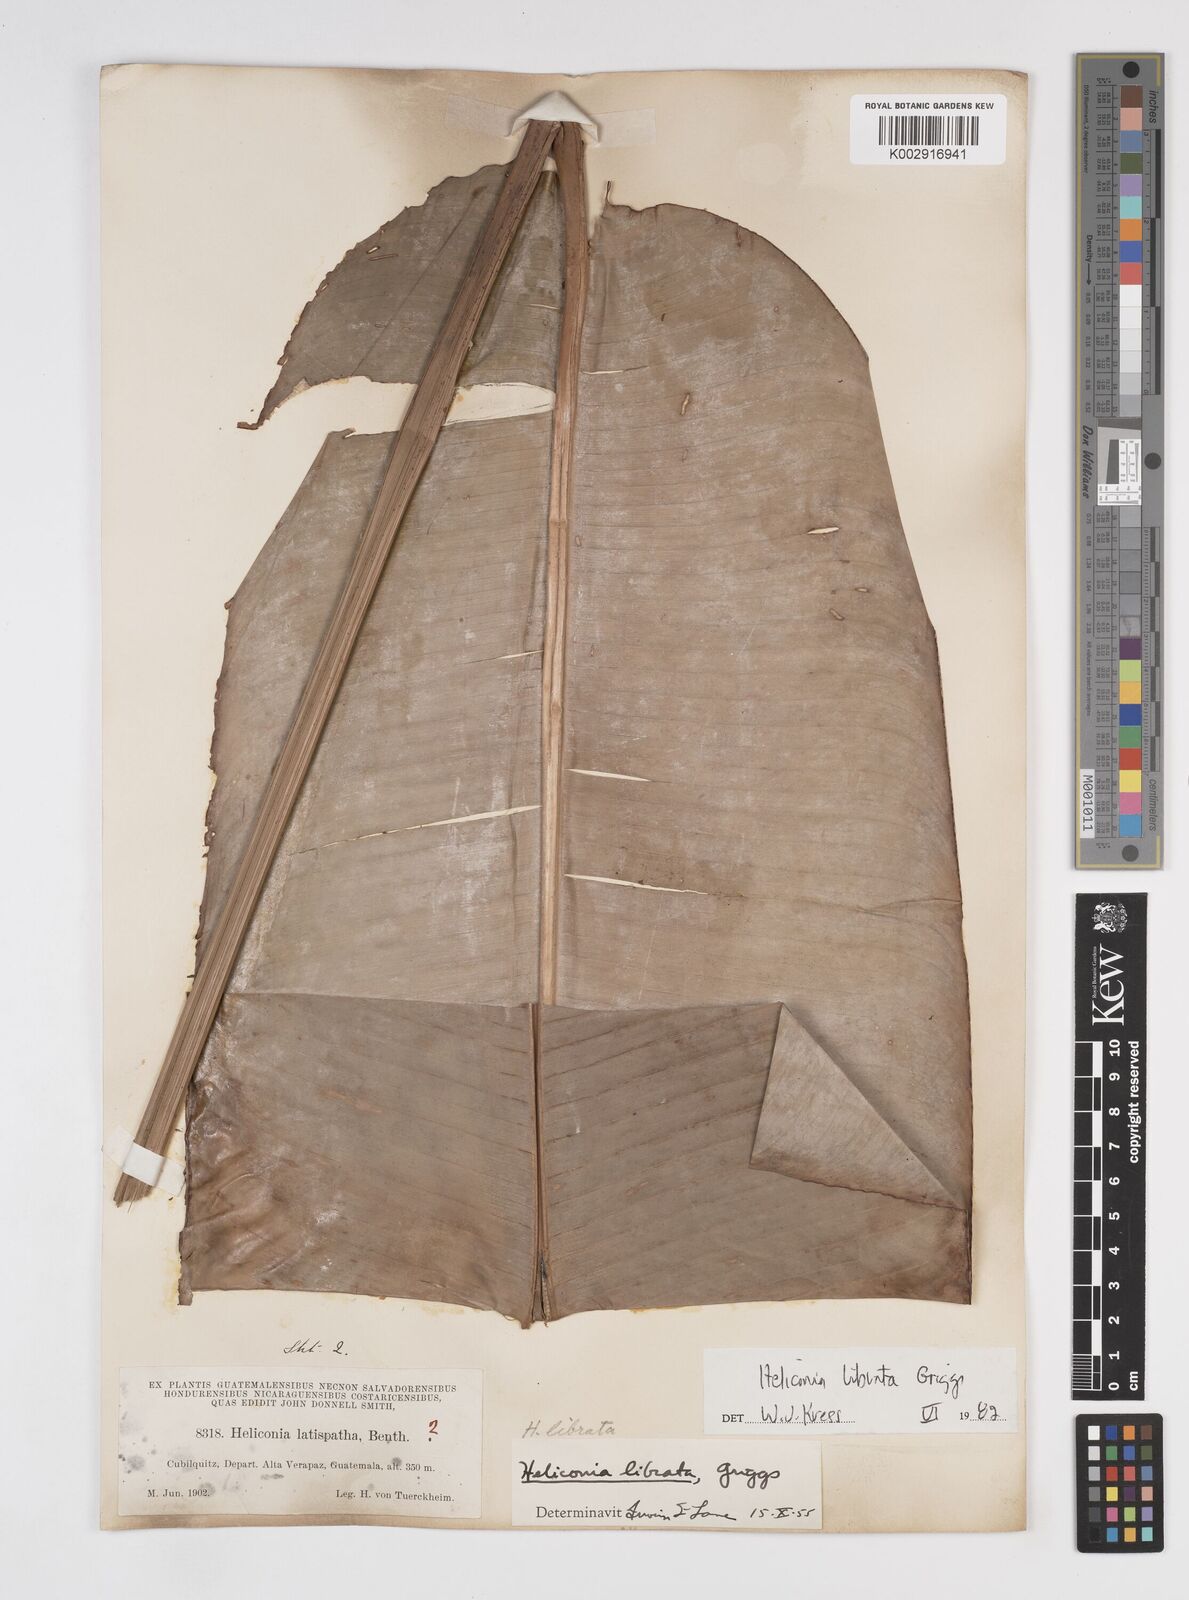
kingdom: Plantae
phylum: Tracheophyta
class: Liliopsida
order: Zingiberales
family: Heliconiaceae
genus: Heliconia
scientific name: Heliconia librata
